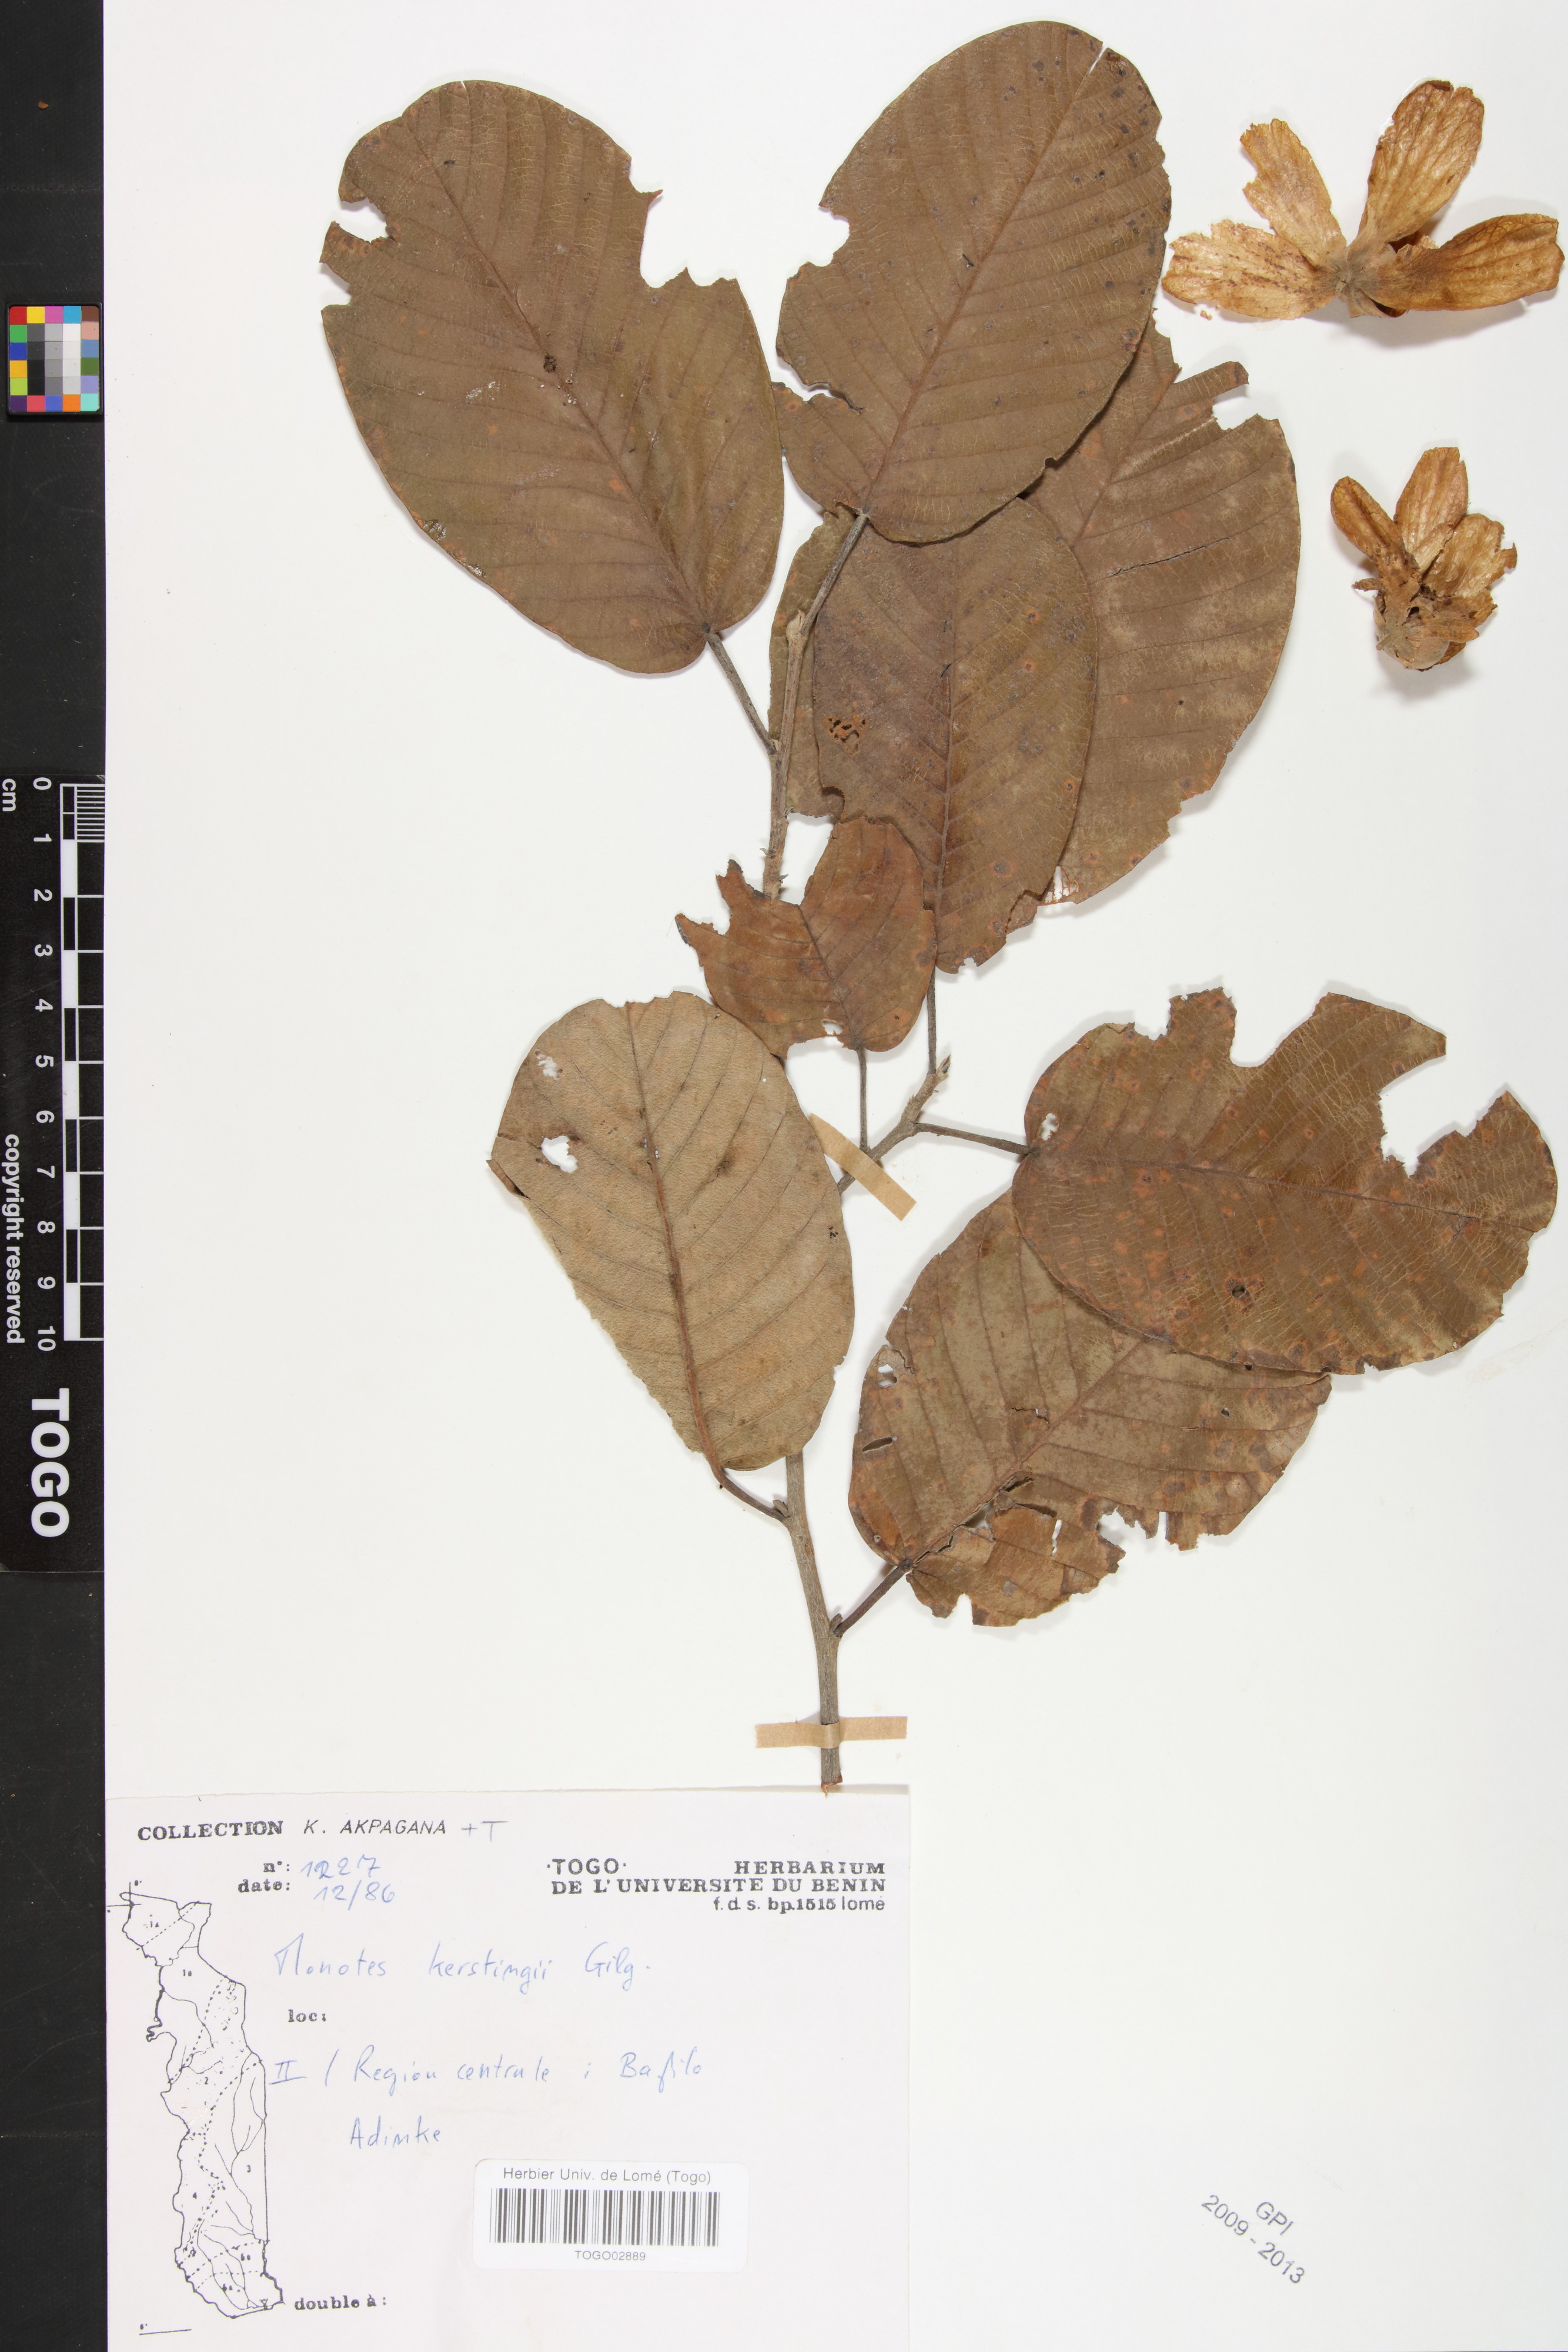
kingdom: Plantae
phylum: Tracheophyta
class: Magnoliopsida
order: Malvales
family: Dipterocarpaceae
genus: Monotes
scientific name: Monotes kerstingii
